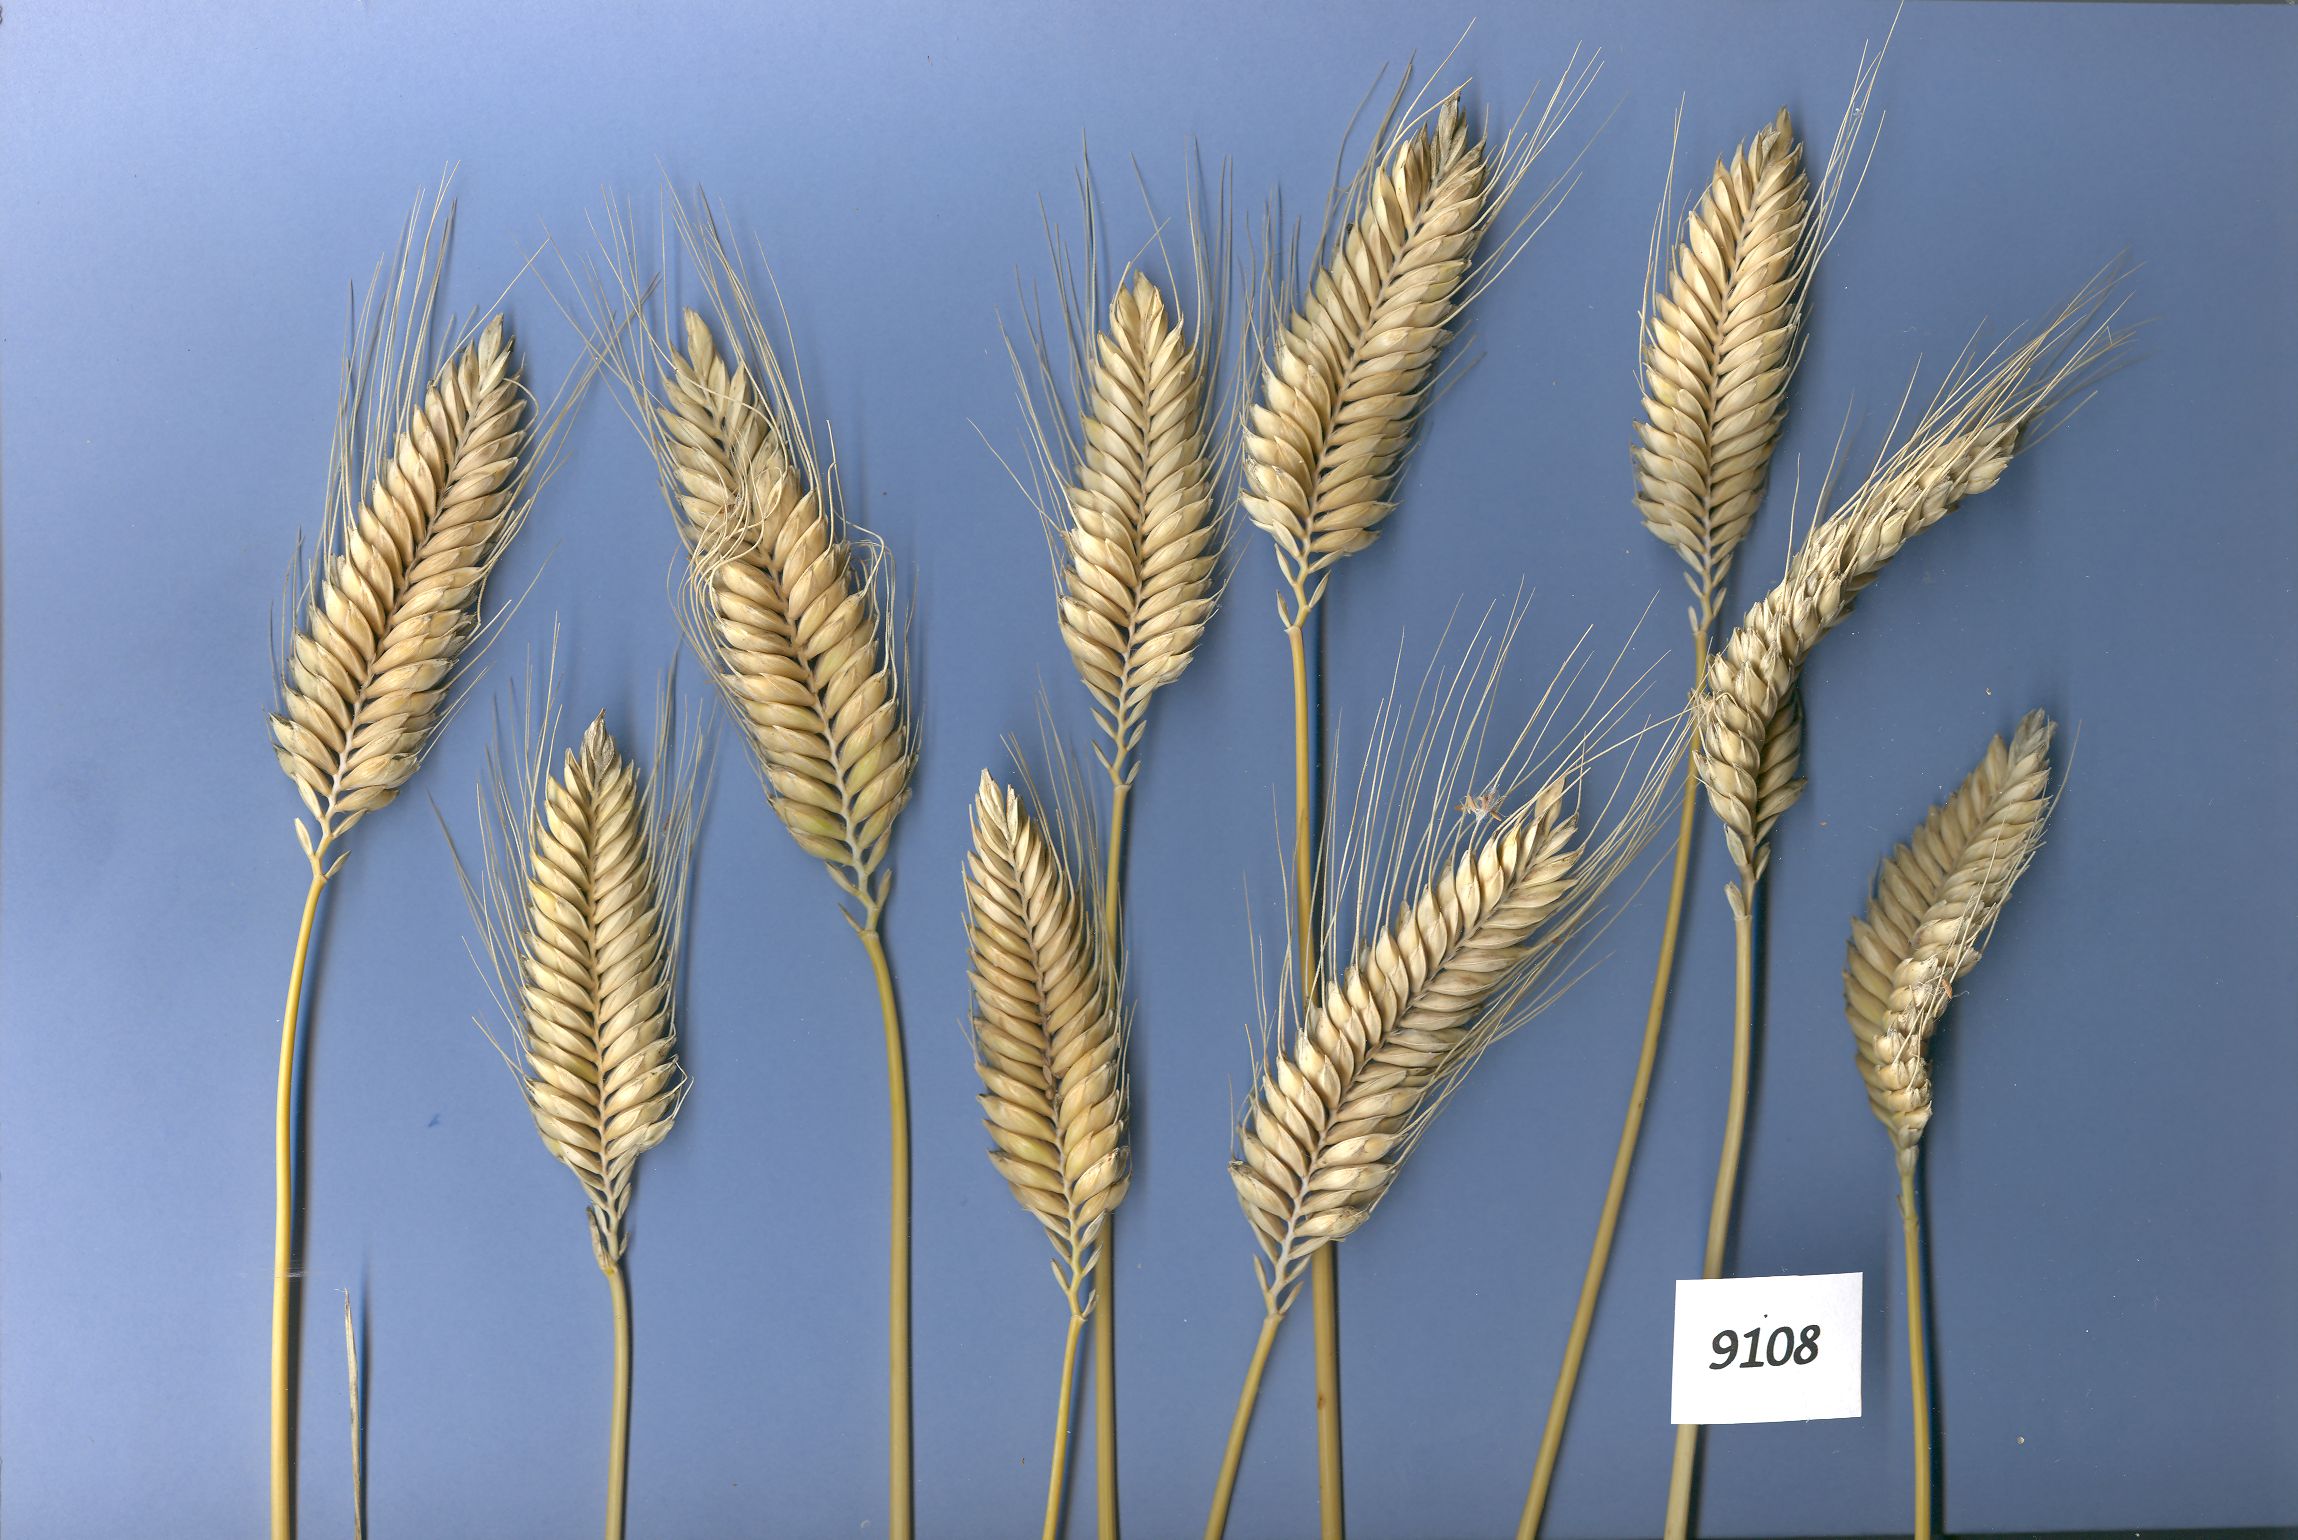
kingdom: Plantae
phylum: Tracheophyta
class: Liliopsida
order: Poales
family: Poaceae
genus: Triticum
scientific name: Triticum turgidum
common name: Rivet wheat
